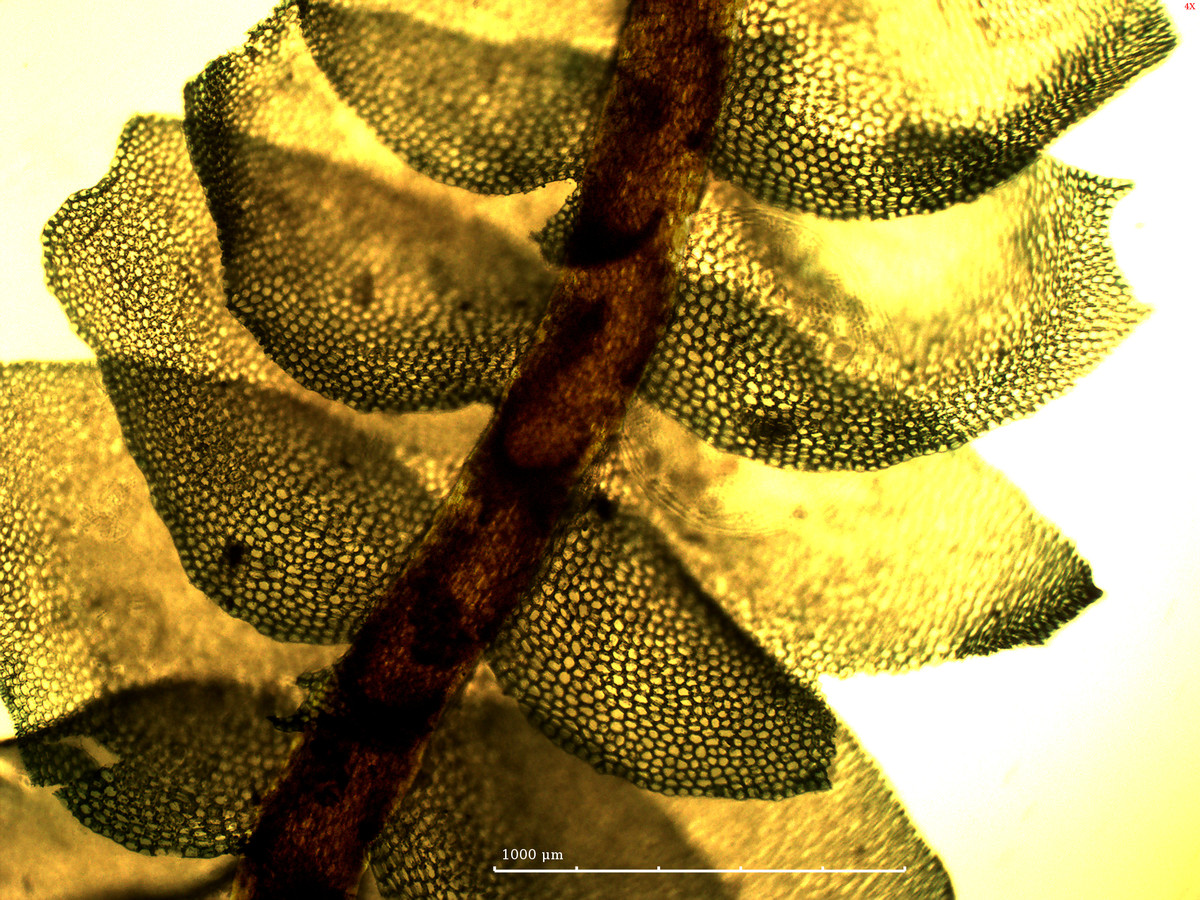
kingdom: Plantae
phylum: Marchantiophyta
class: Jungermanniopsida
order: Jungermanniales
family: Lophocoleaceae
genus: Lophocolea
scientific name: Lophocolea lucida
